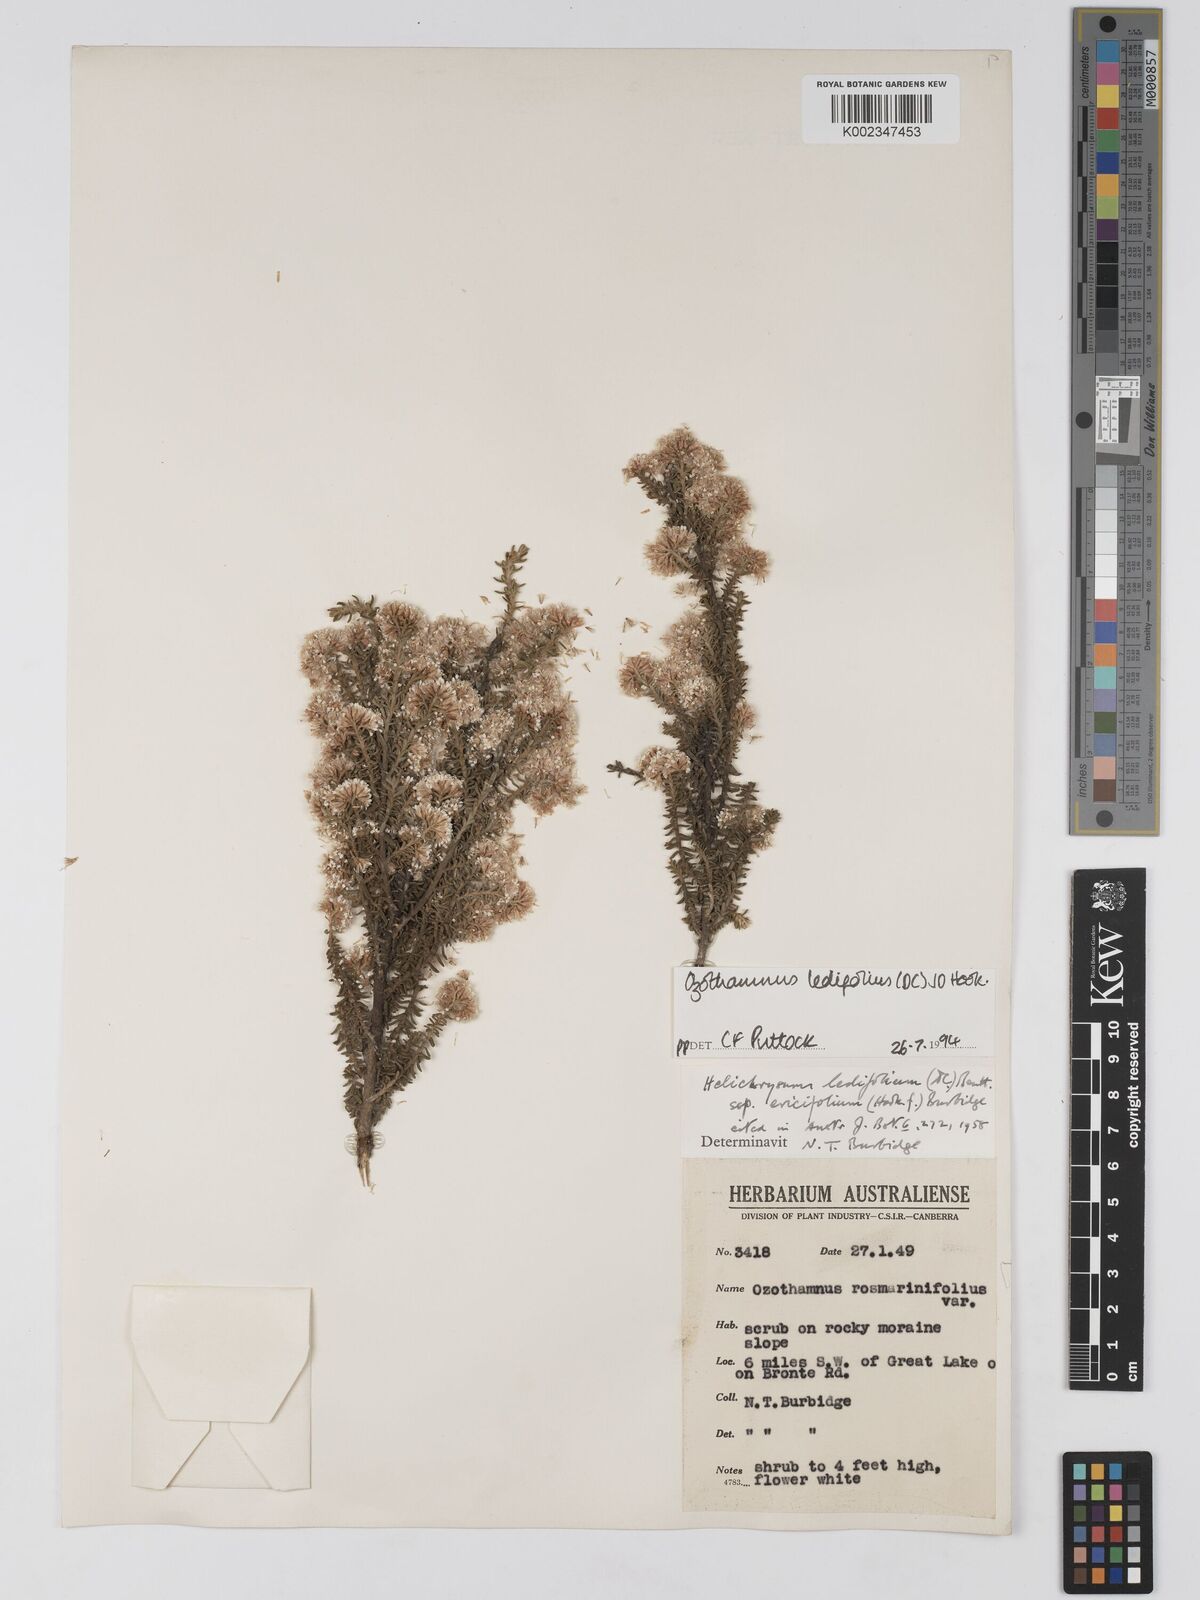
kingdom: Plantae
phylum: Tracheophyta
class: Magnoliopsida
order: Asterales
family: Asteraceae
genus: Ozothamnus
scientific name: Ozothamnus ledifolius
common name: Kerosene-weed
